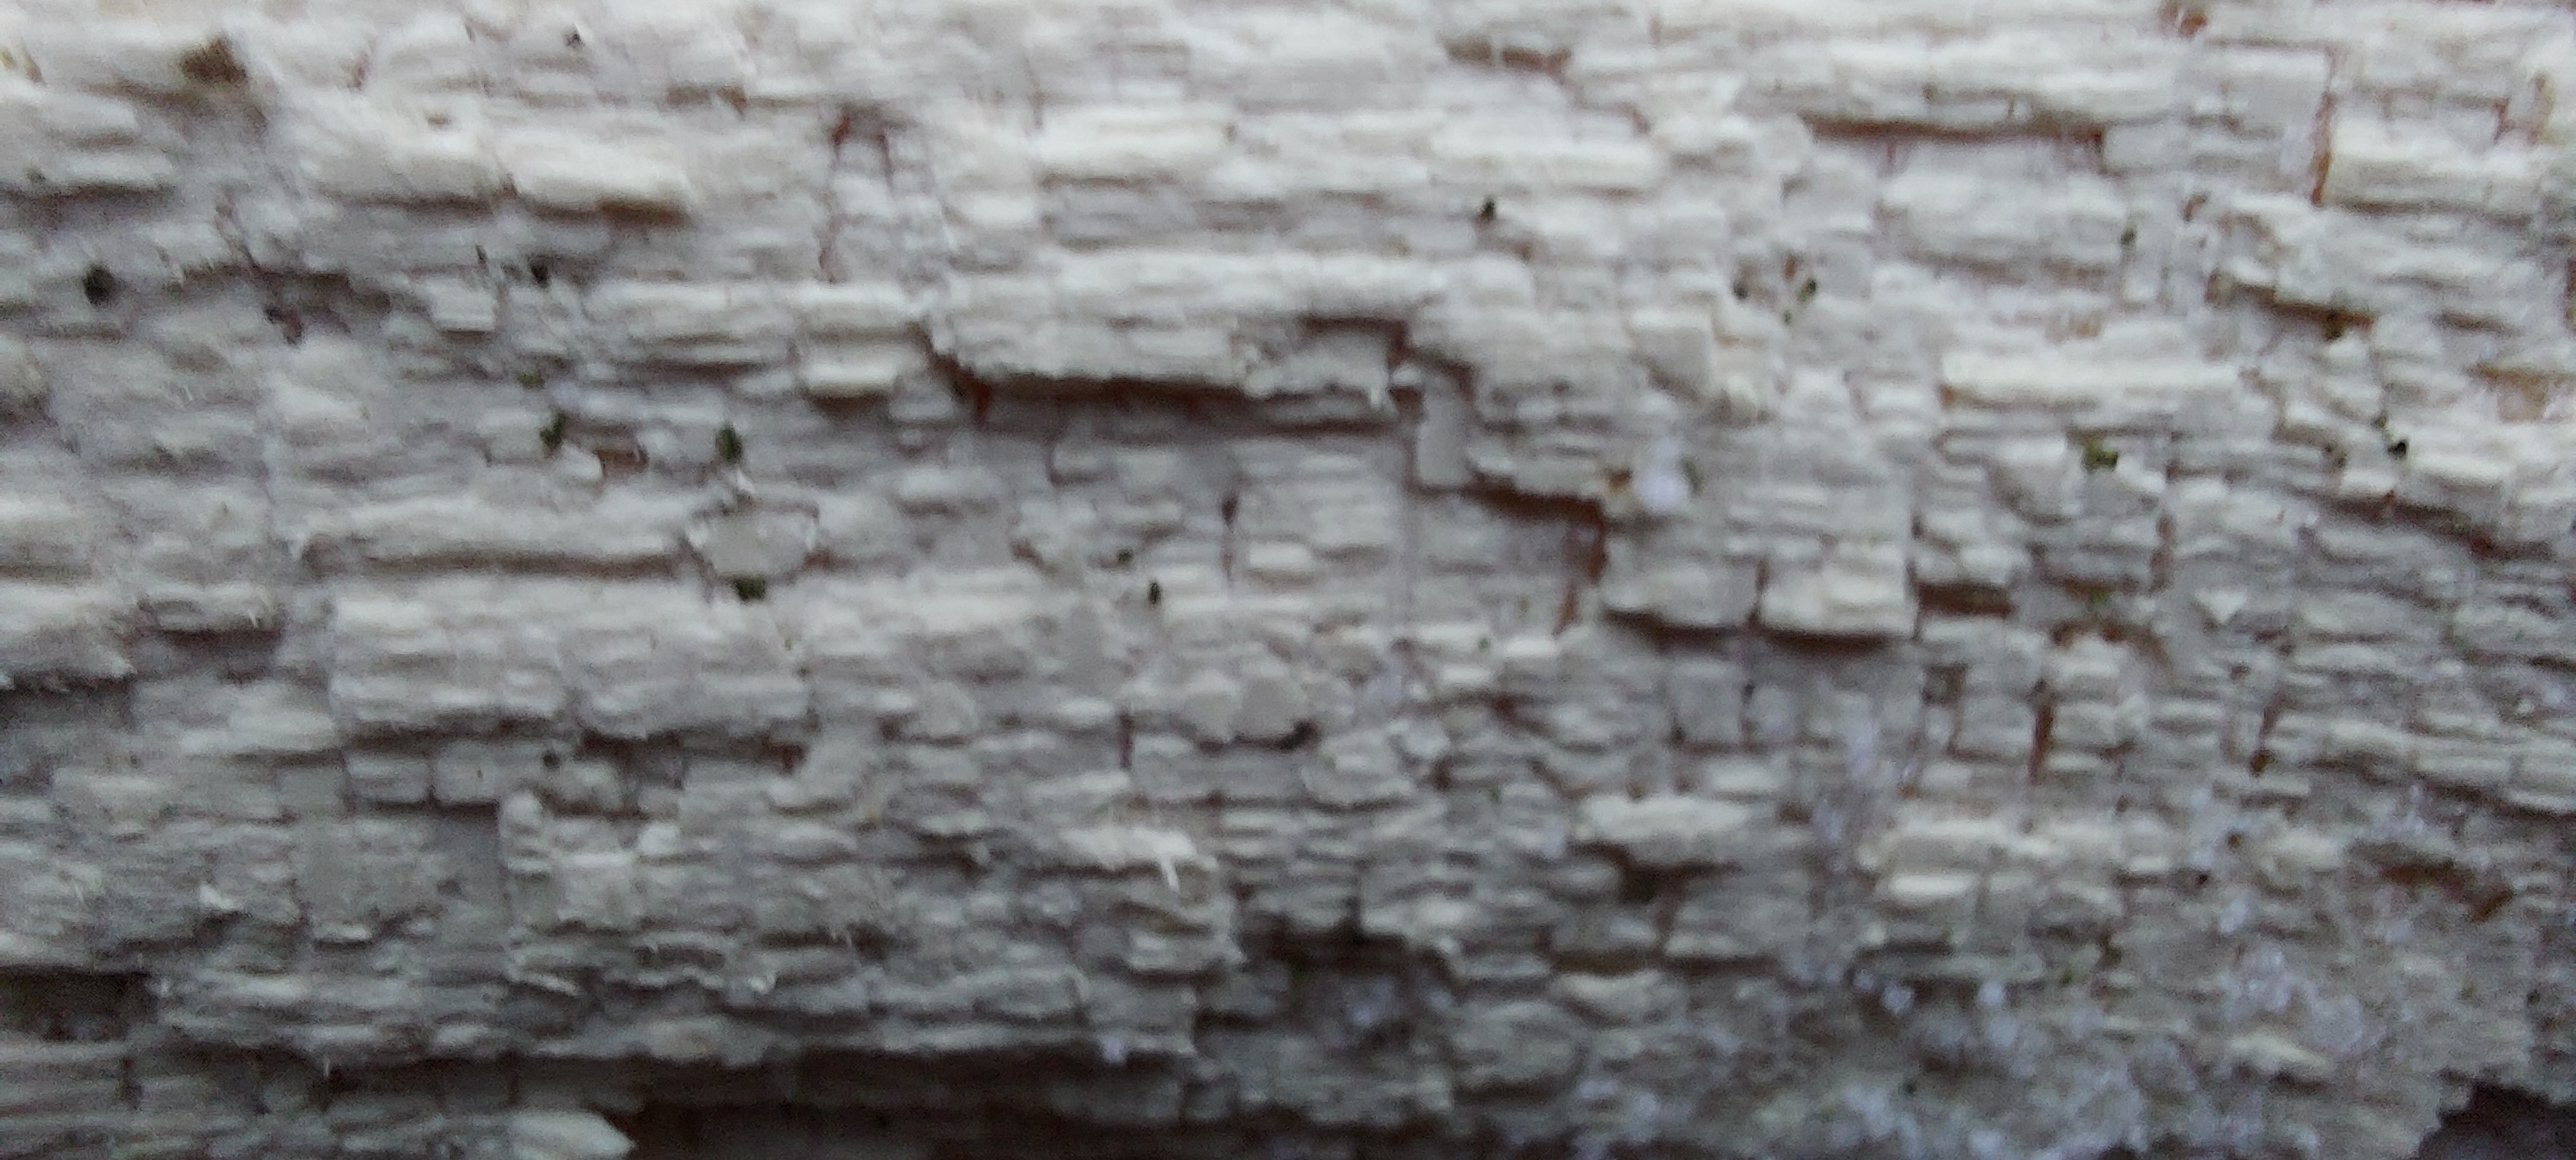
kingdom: Fungi
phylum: Basidiomycota
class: Agaricomycetes
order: Corticiales
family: Corticiaceae
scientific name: Corticiaceae
